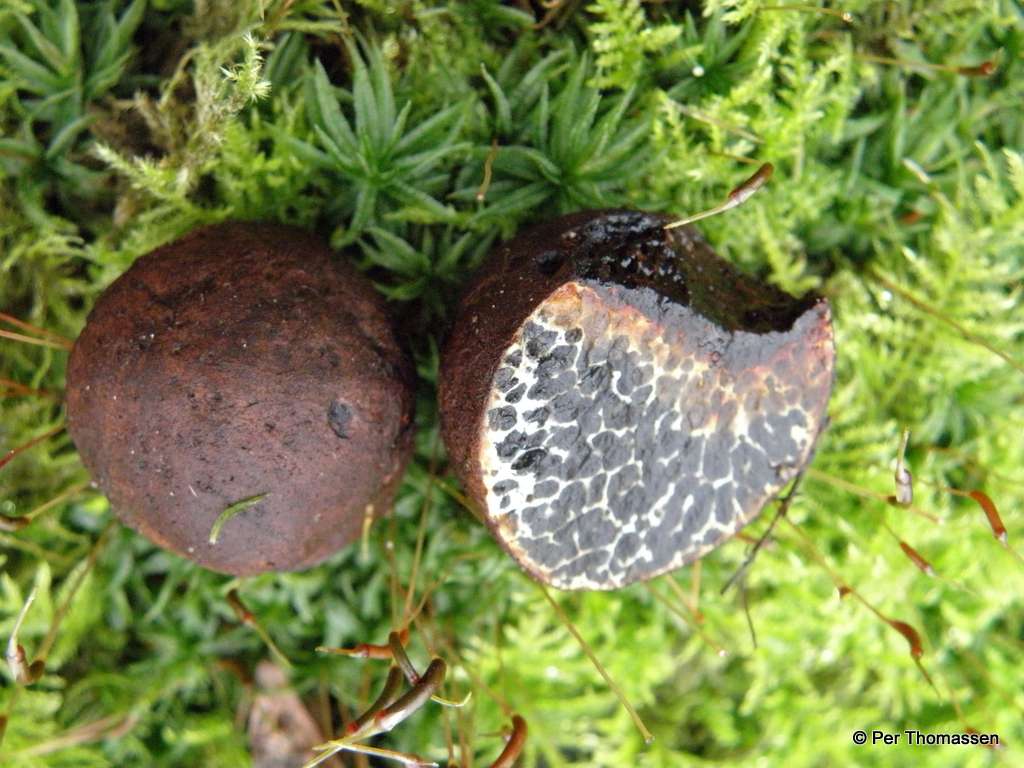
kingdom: Fungi
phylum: Basidiomycota
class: Agaricomycetes
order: Boletales
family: Paxillaceae
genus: Melanogaster
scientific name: Melanogaster tuberiformis
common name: stor slimtrøffel
